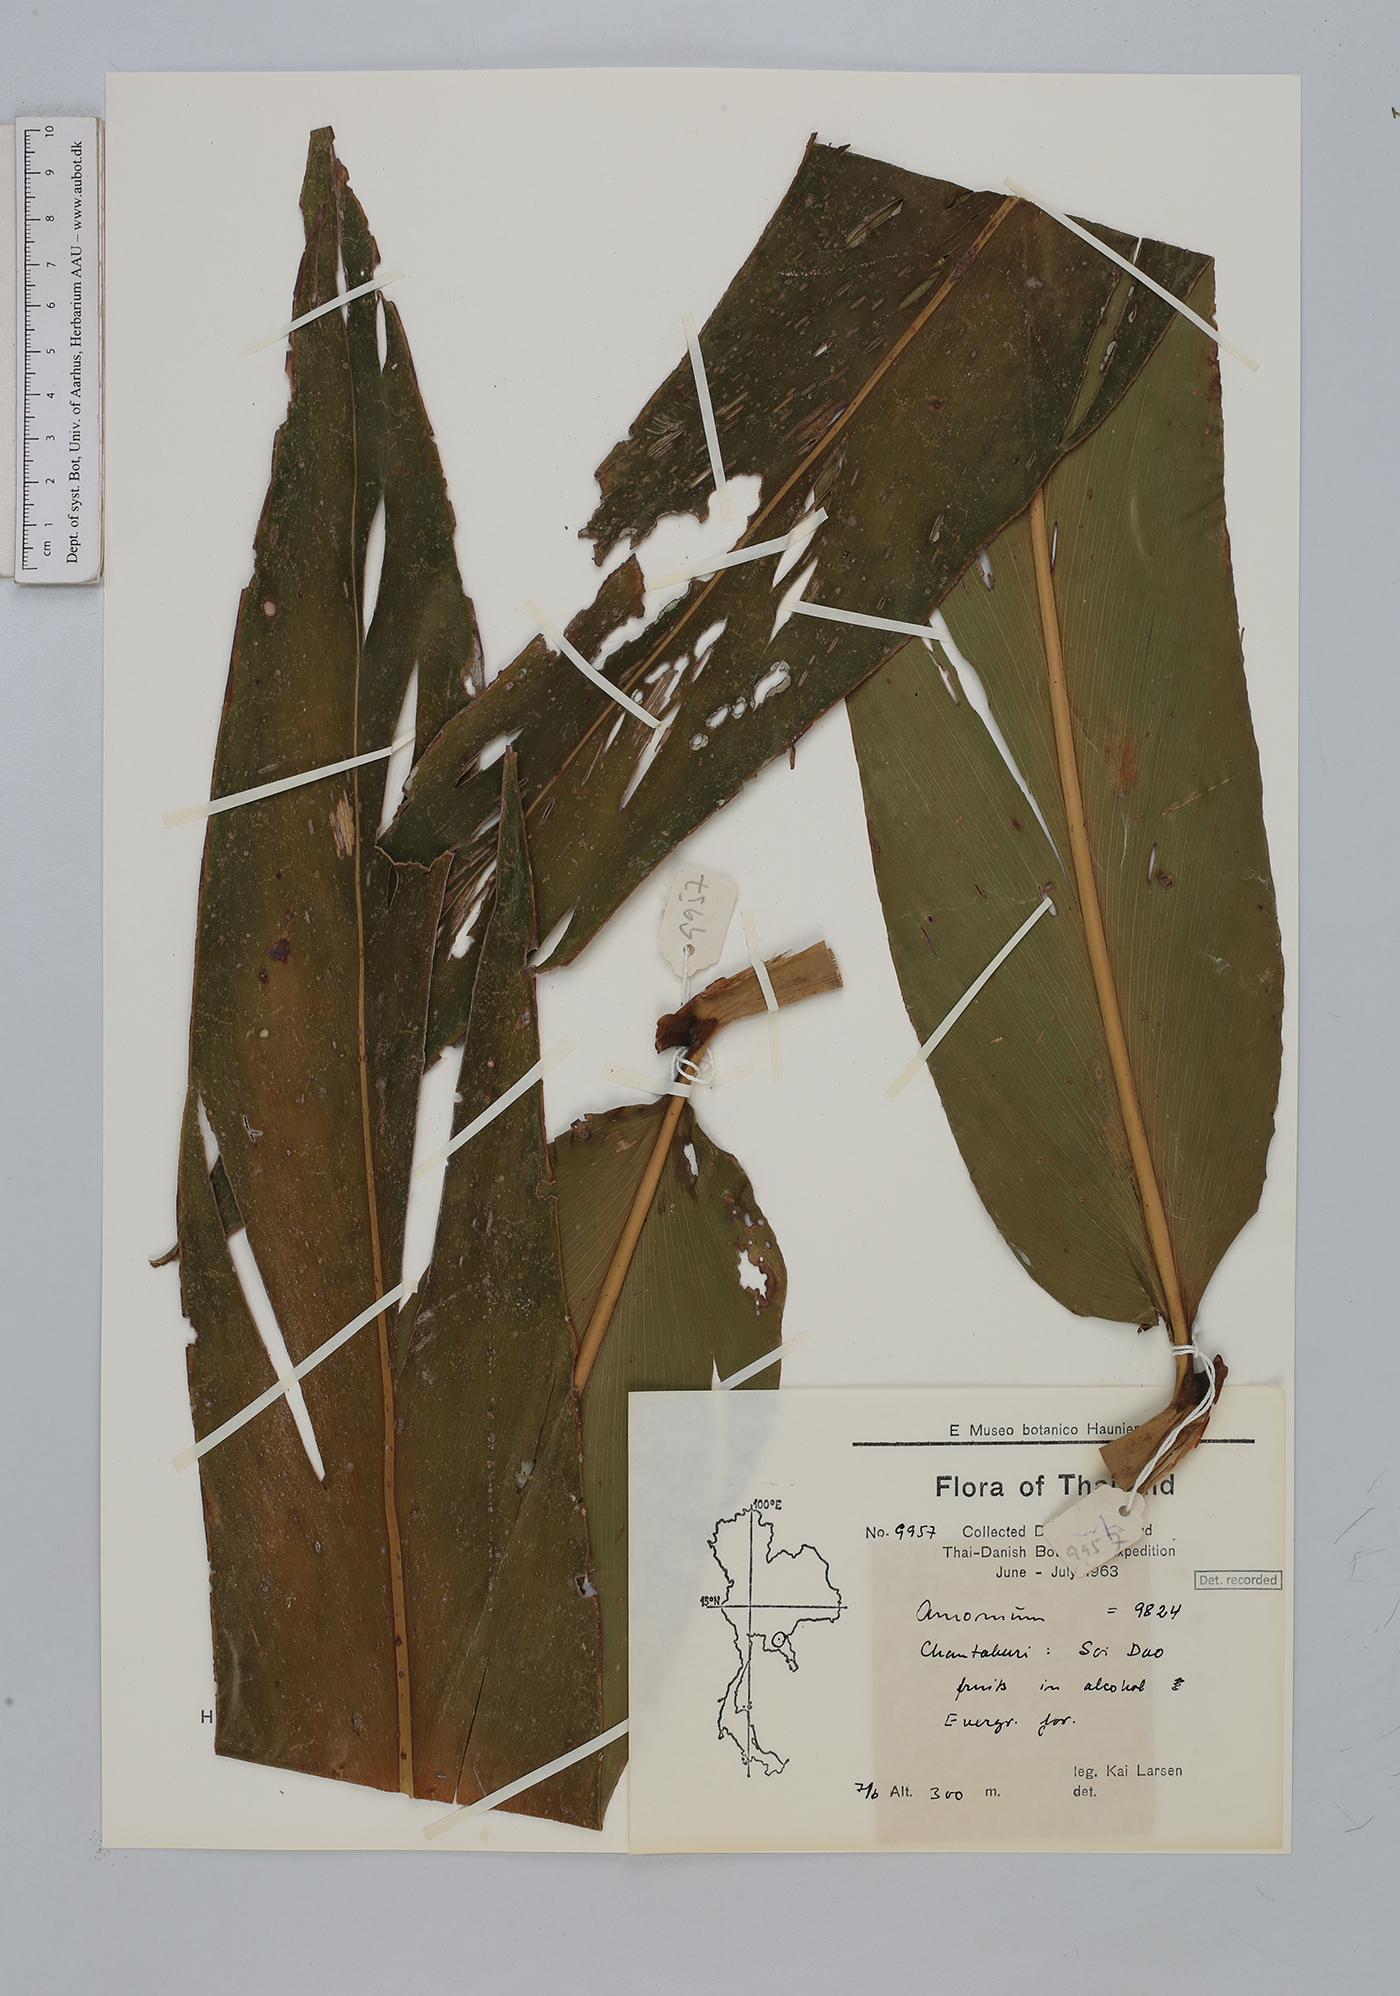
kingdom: Plantae
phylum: Tracheophyta
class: Liliopsida
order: Zingiberales
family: Zingiberaceae
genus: Amomum
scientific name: Amomum
